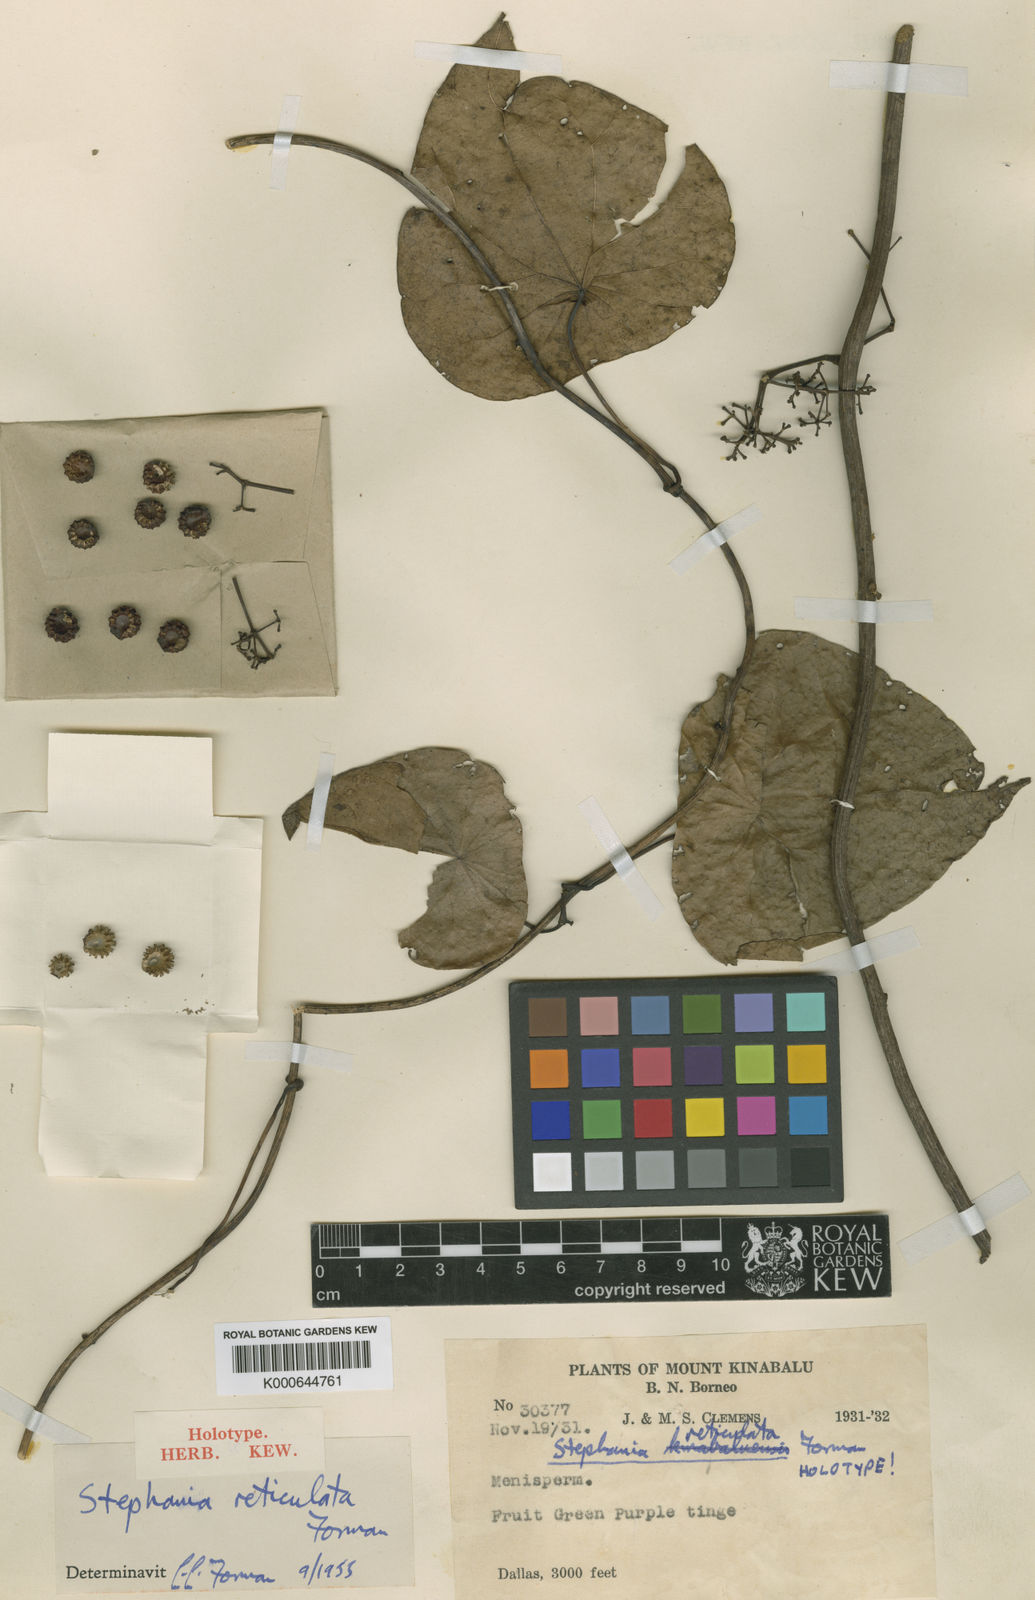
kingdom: Plantae
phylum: Tracheophyta
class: Magnoliopsida
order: Ranunculales
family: Menispermaceae
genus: Stephania
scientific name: Stephania reticulata
